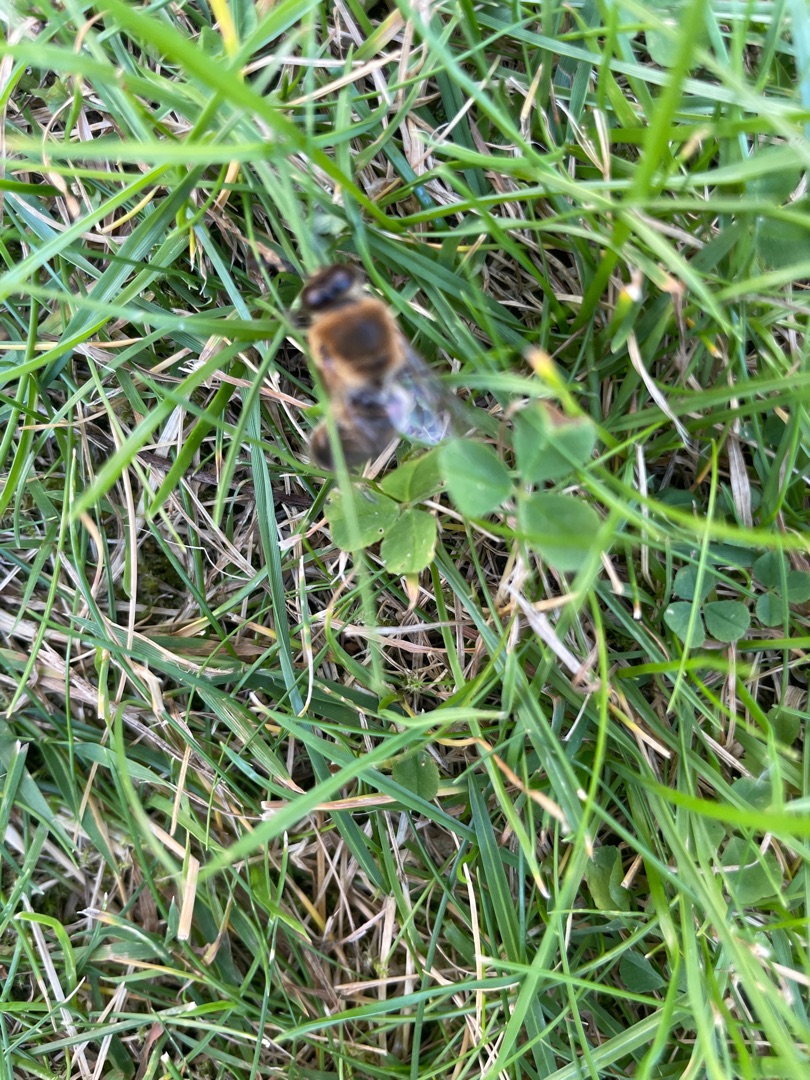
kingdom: Animalia
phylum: Arthropoda
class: Insecta
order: Hymenoptera
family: Apidae
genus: Apis
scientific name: Apis mellifera
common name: Honningbi
